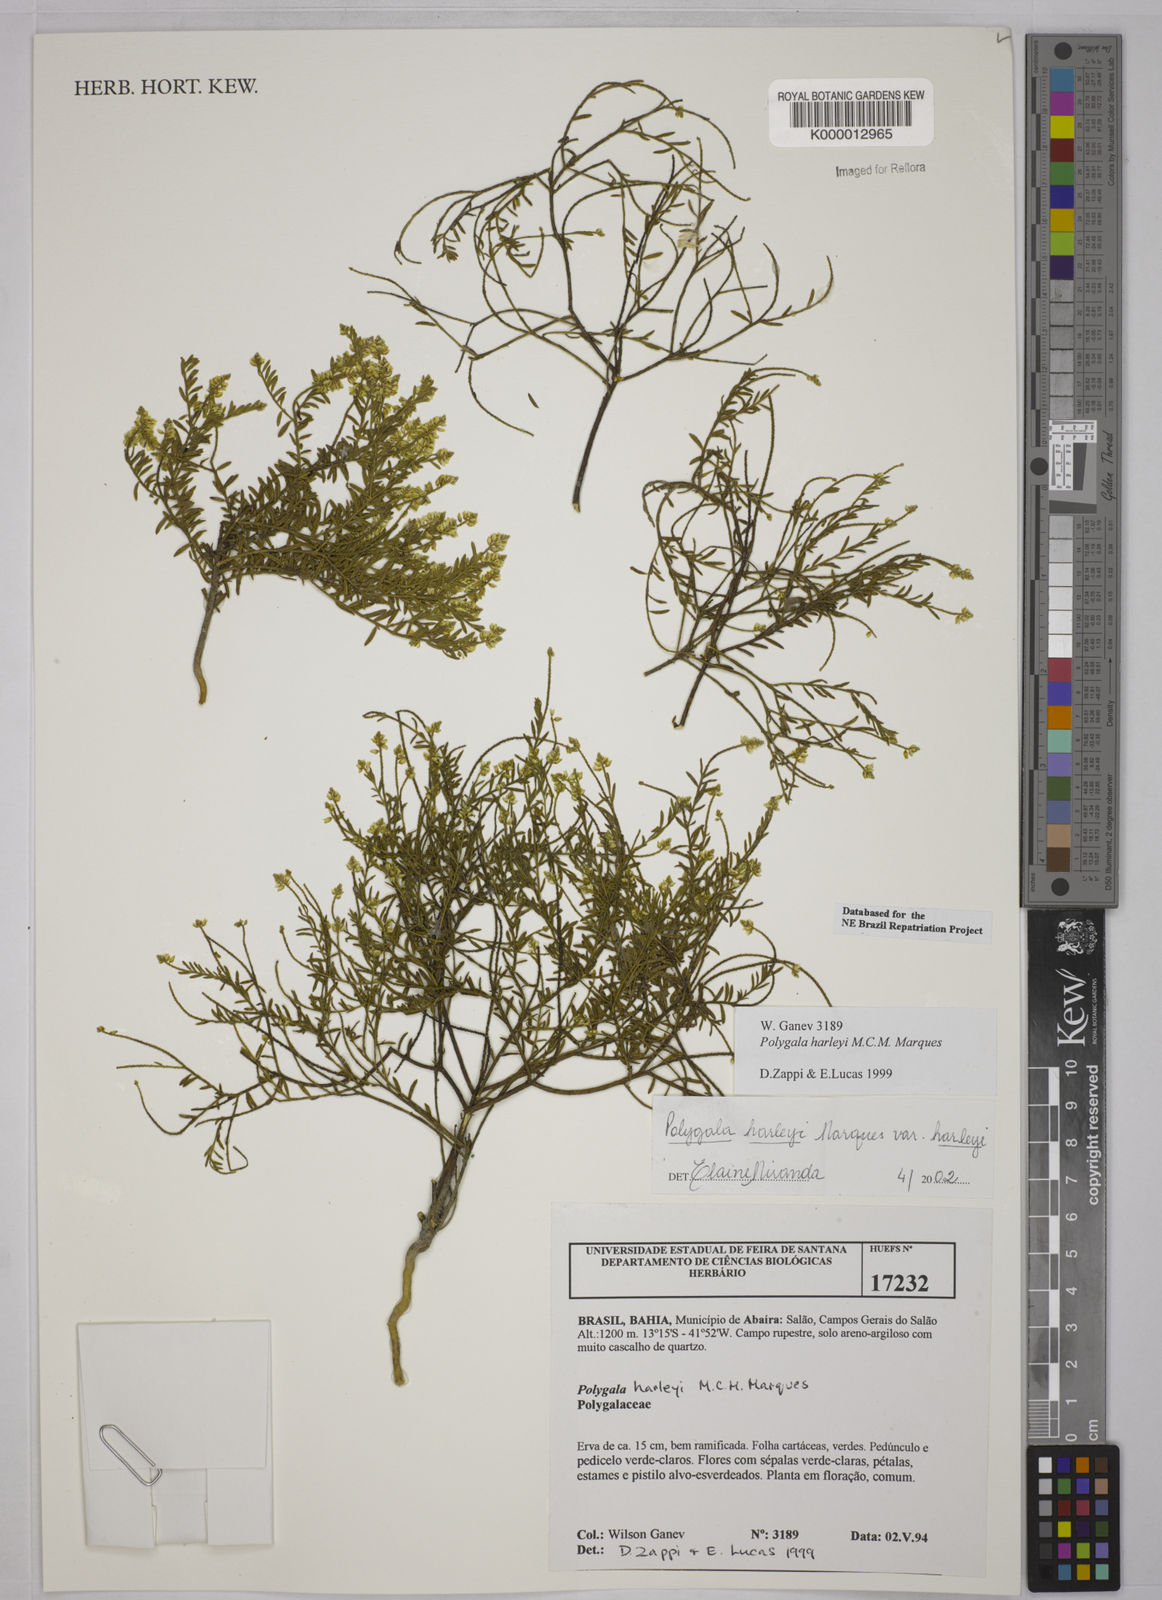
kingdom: Plantae
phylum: Tracheophyta
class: Magnoliopsida
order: Fabales
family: Polygalaceae
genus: Polygala
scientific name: Polygala
